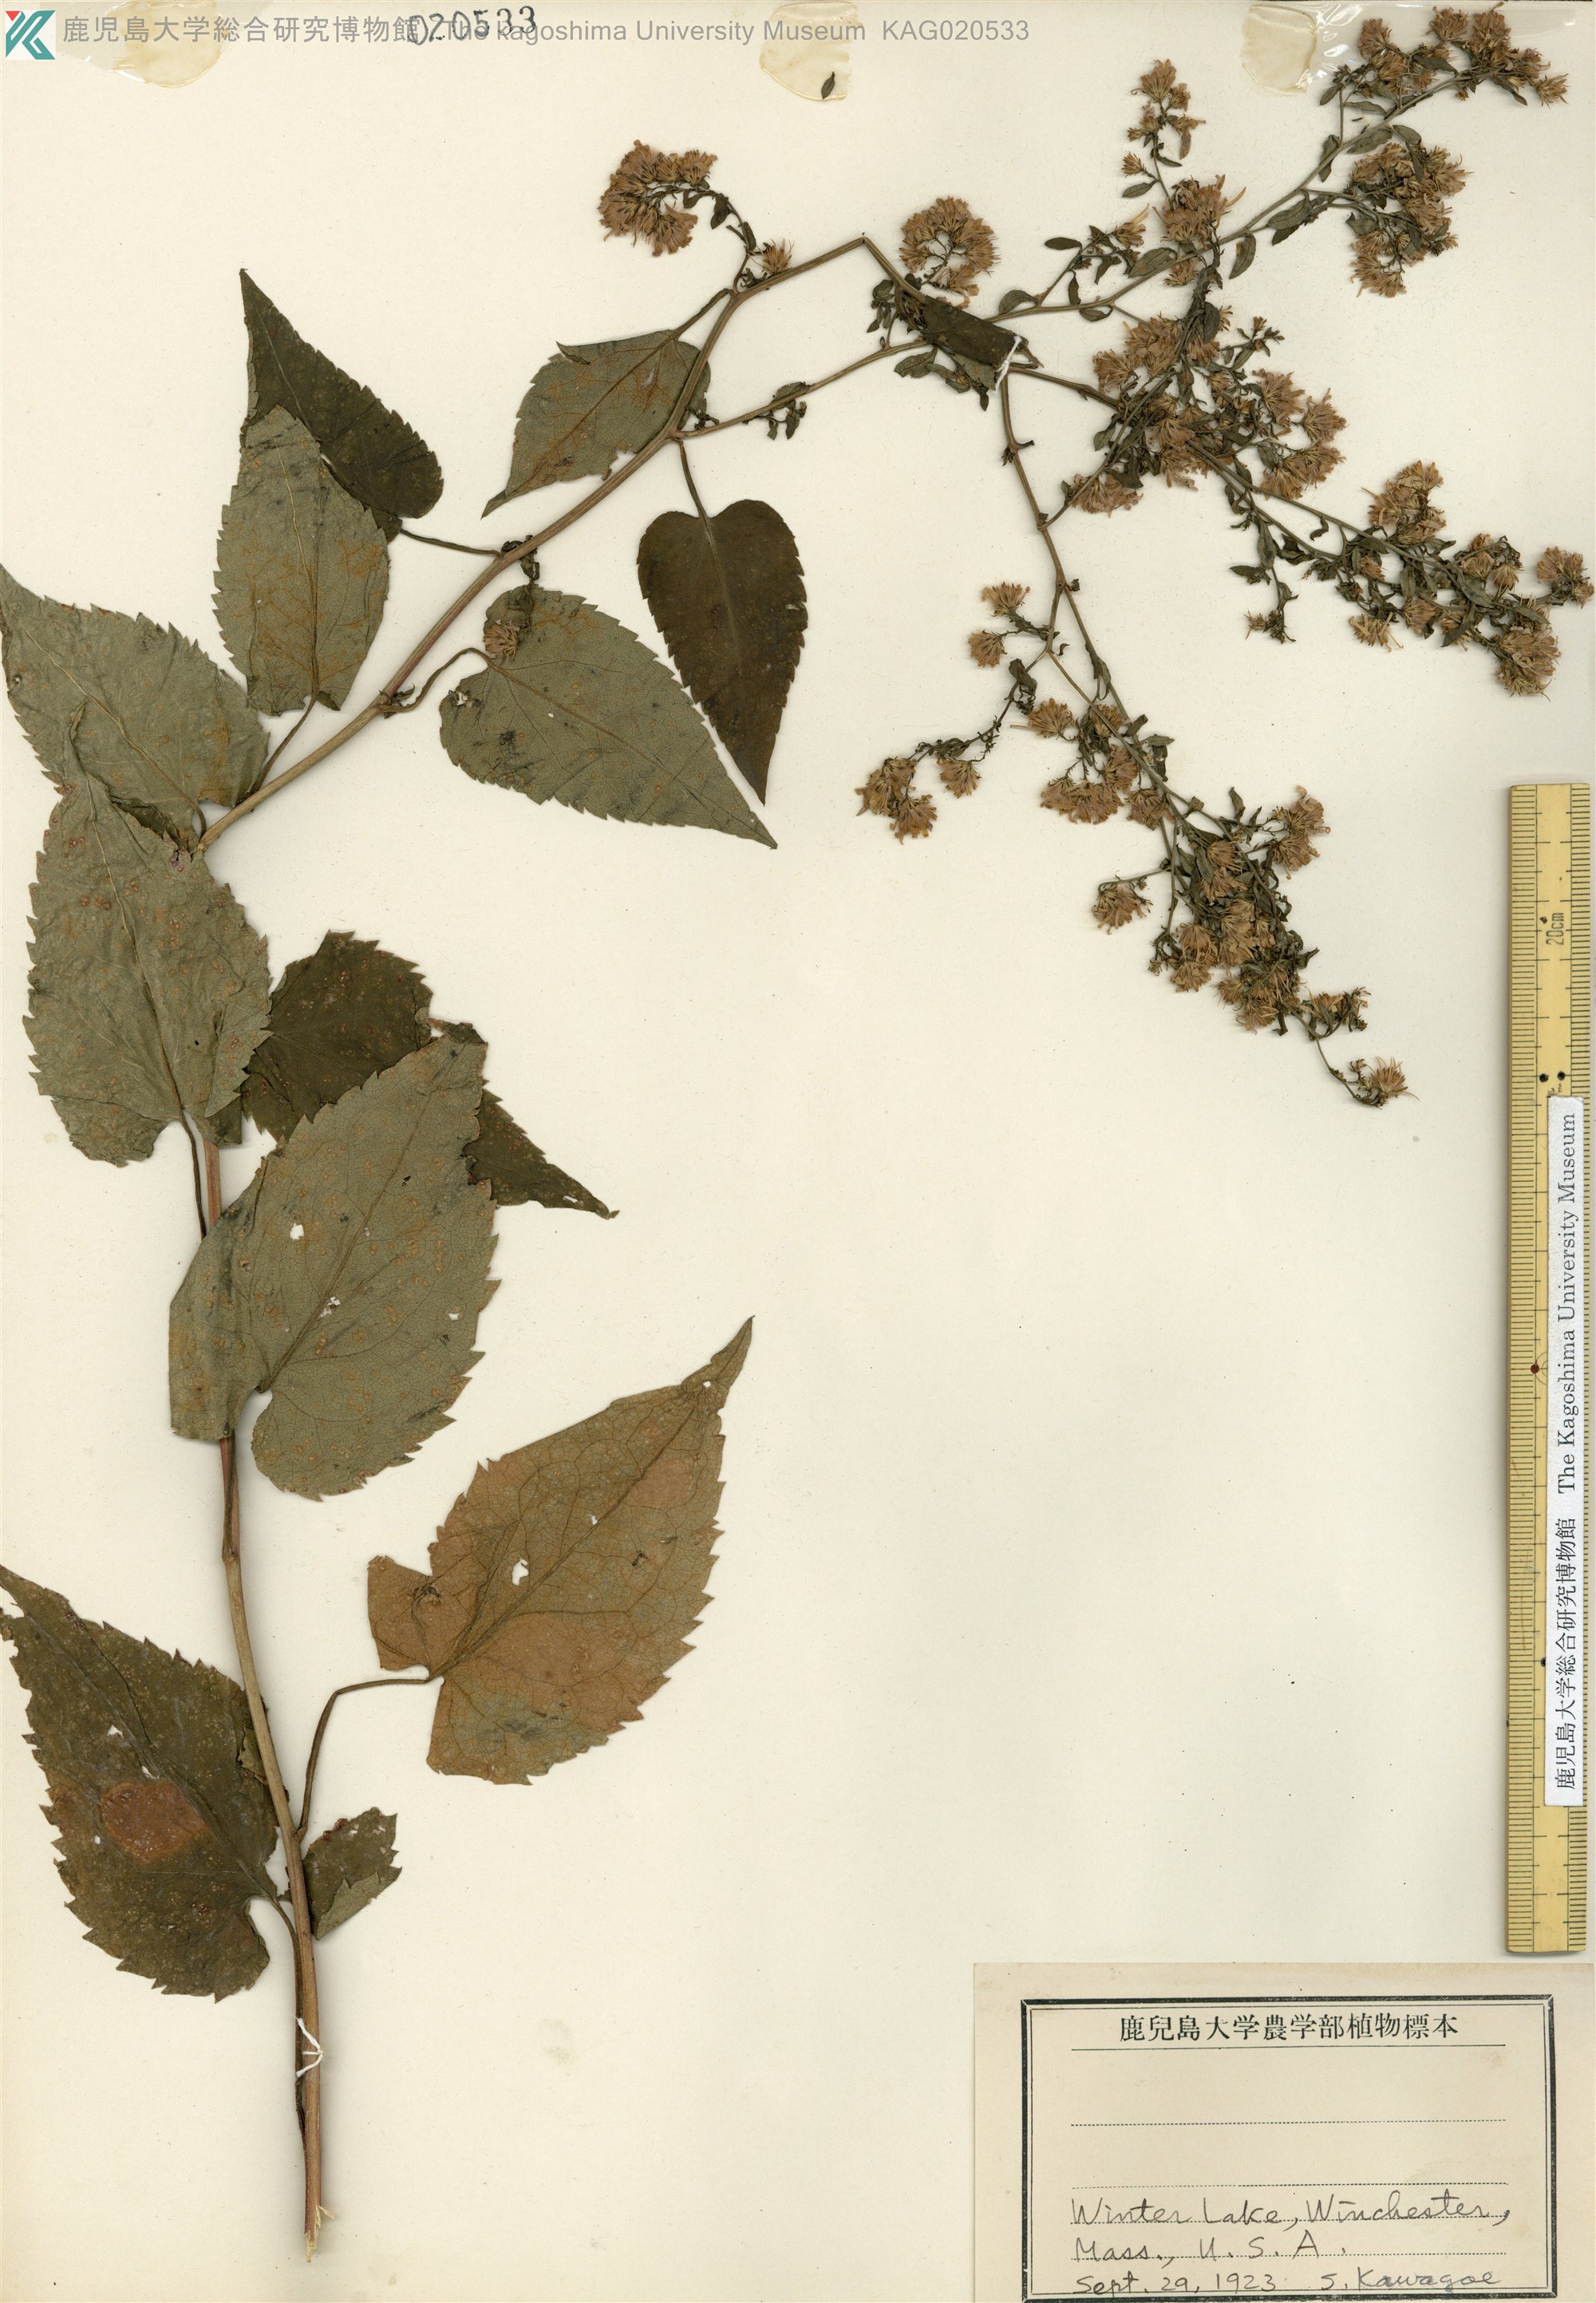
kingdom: Plantae
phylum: Tracheophyta
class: Magnoliopsida
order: Asterales
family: Asteraceae
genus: Aster
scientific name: Aster
